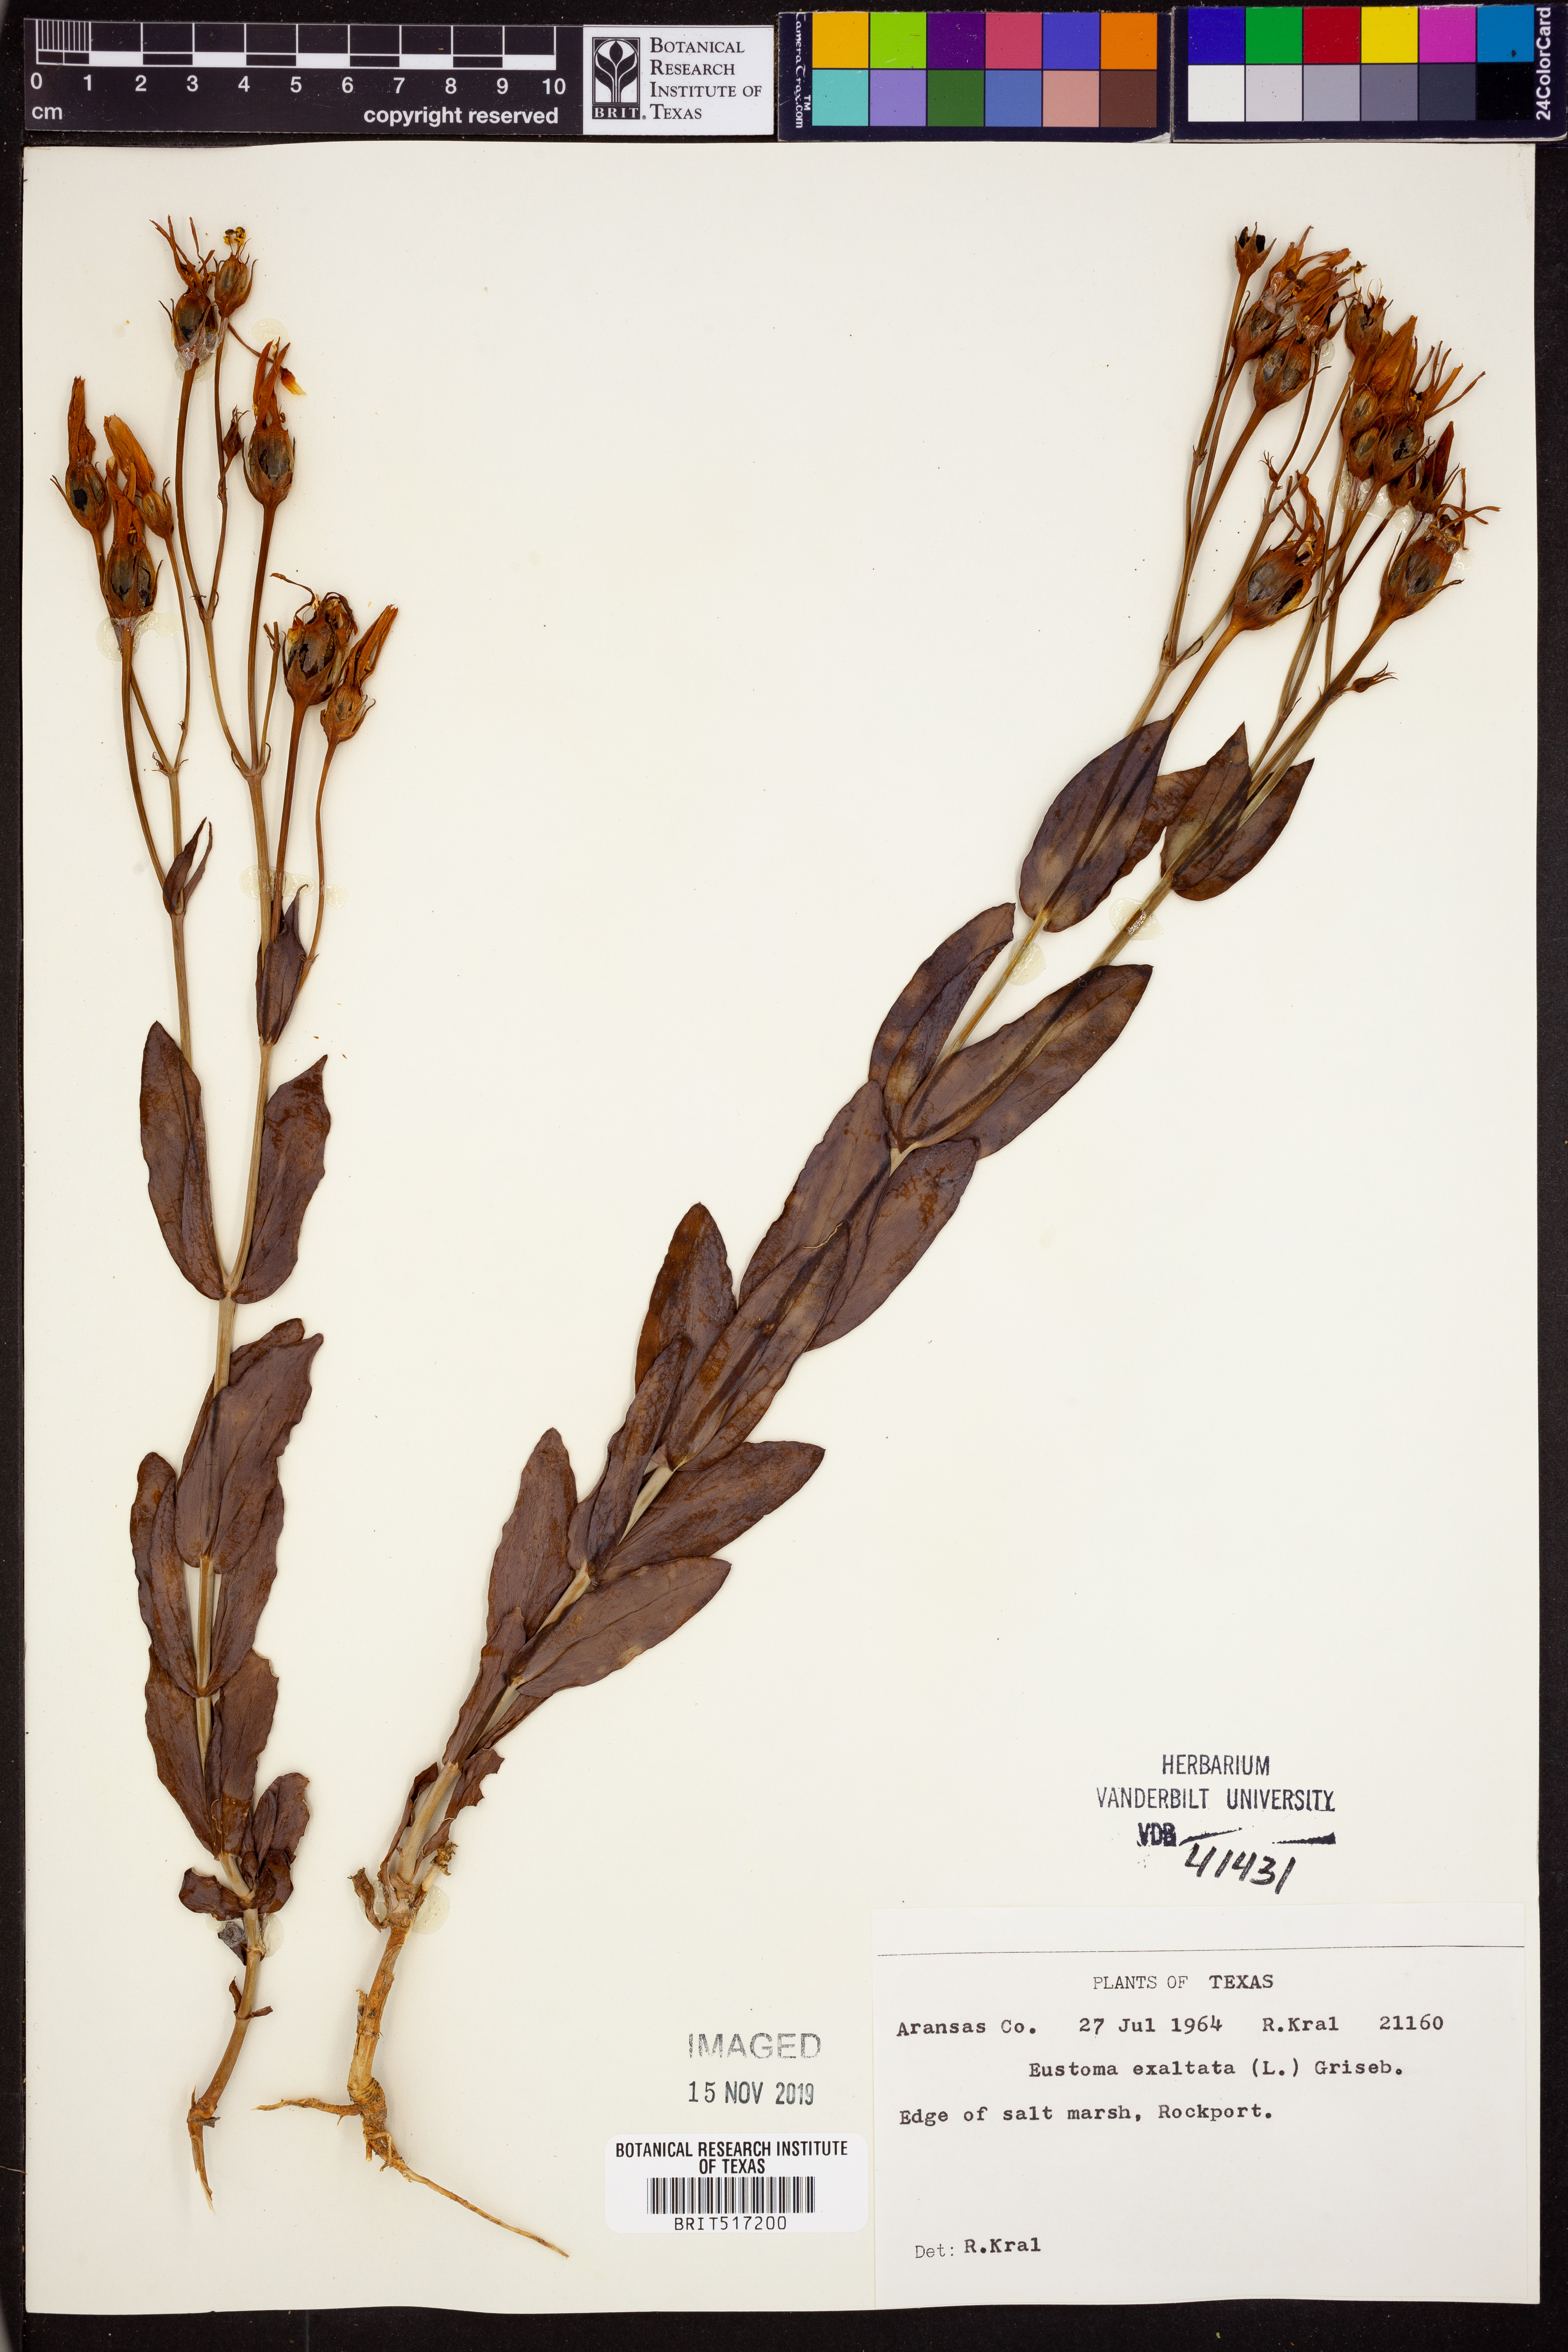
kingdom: Plantae
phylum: Tracheophyta
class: Magnoliopsida
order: Gentianales
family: Gentianaceae
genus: Eustoma
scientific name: Eustoma exaltatum
